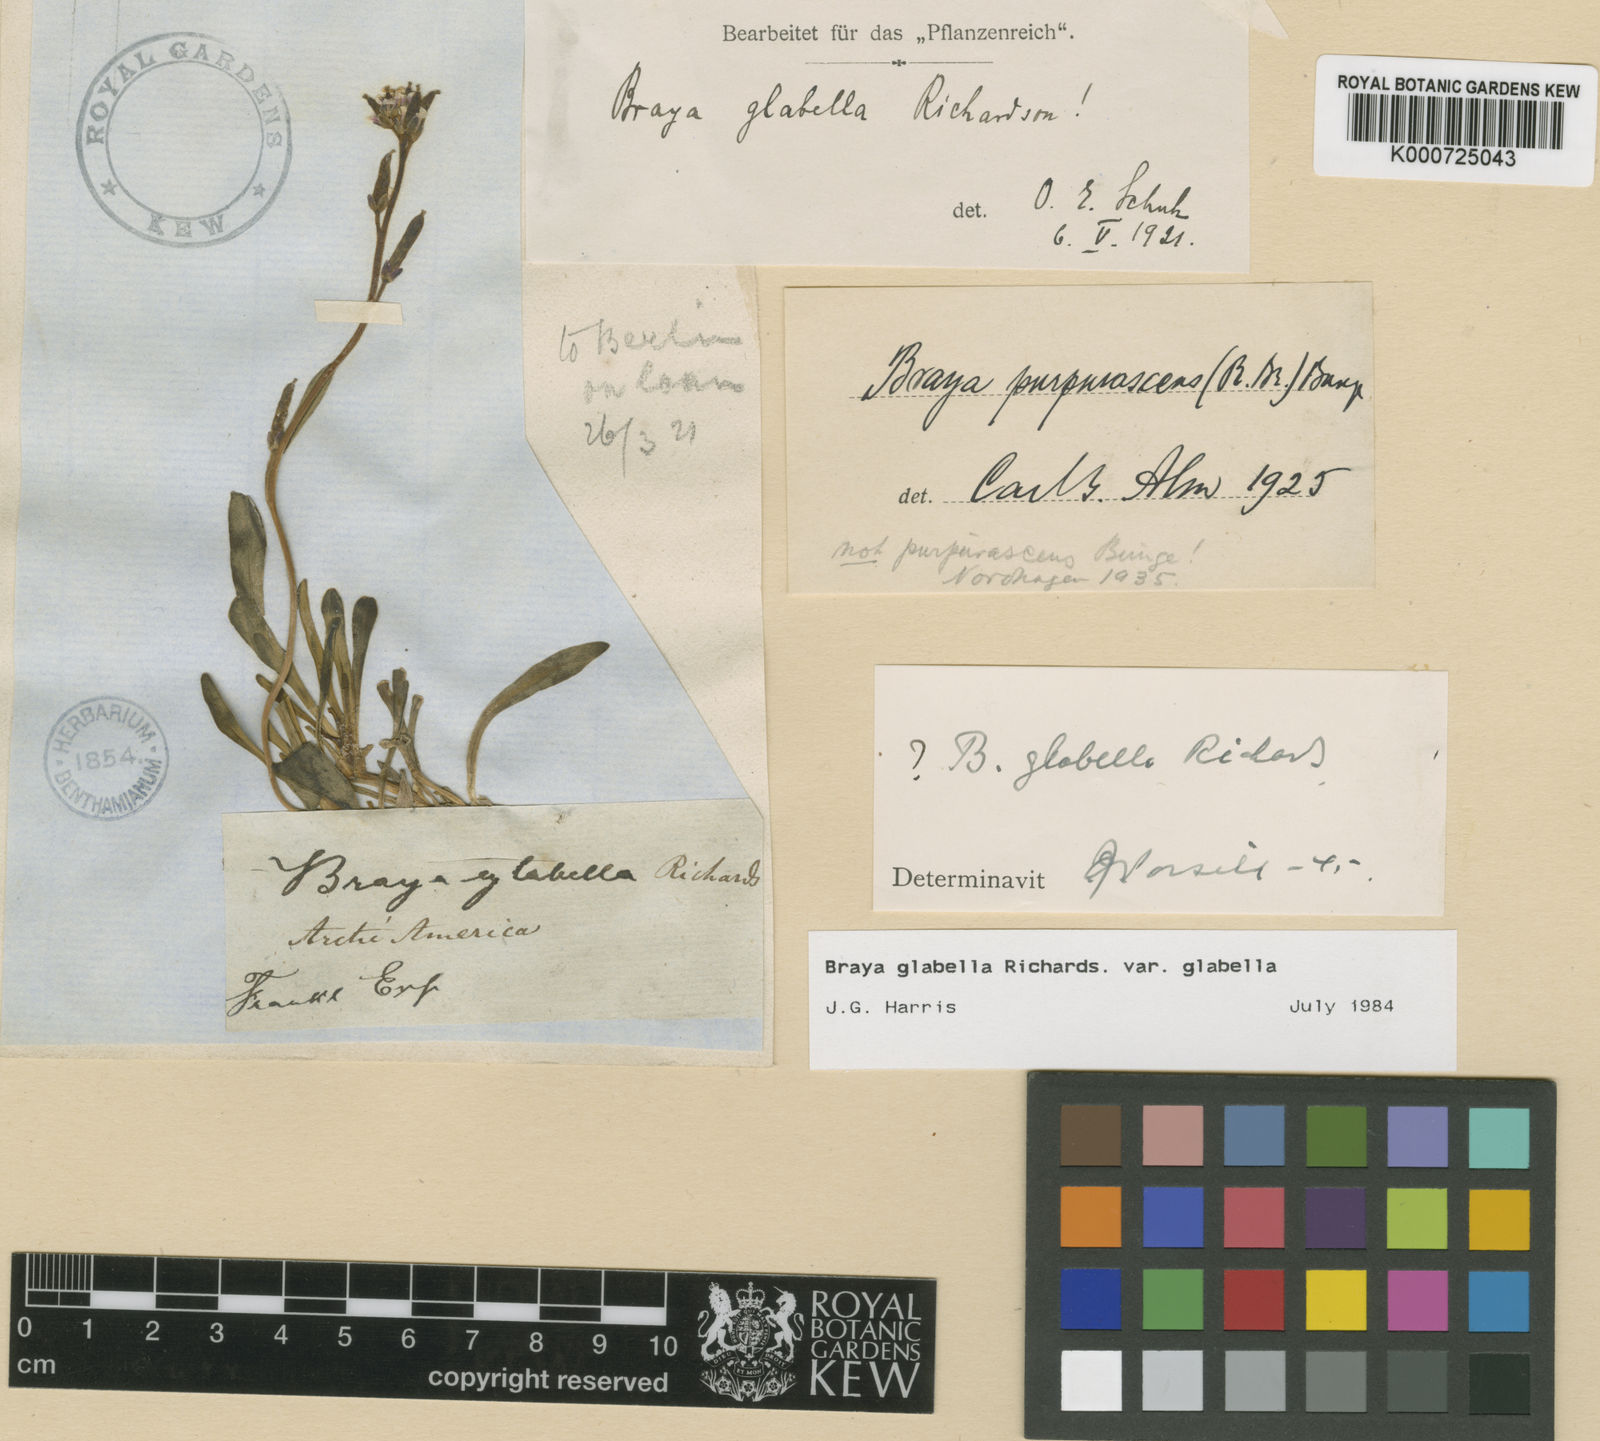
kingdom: Plantae
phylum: Tracheophyta
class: Magnoliopsida
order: Brassicales
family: Brassicaceae
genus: Braya
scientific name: Braya glabella
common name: Smooth braya
